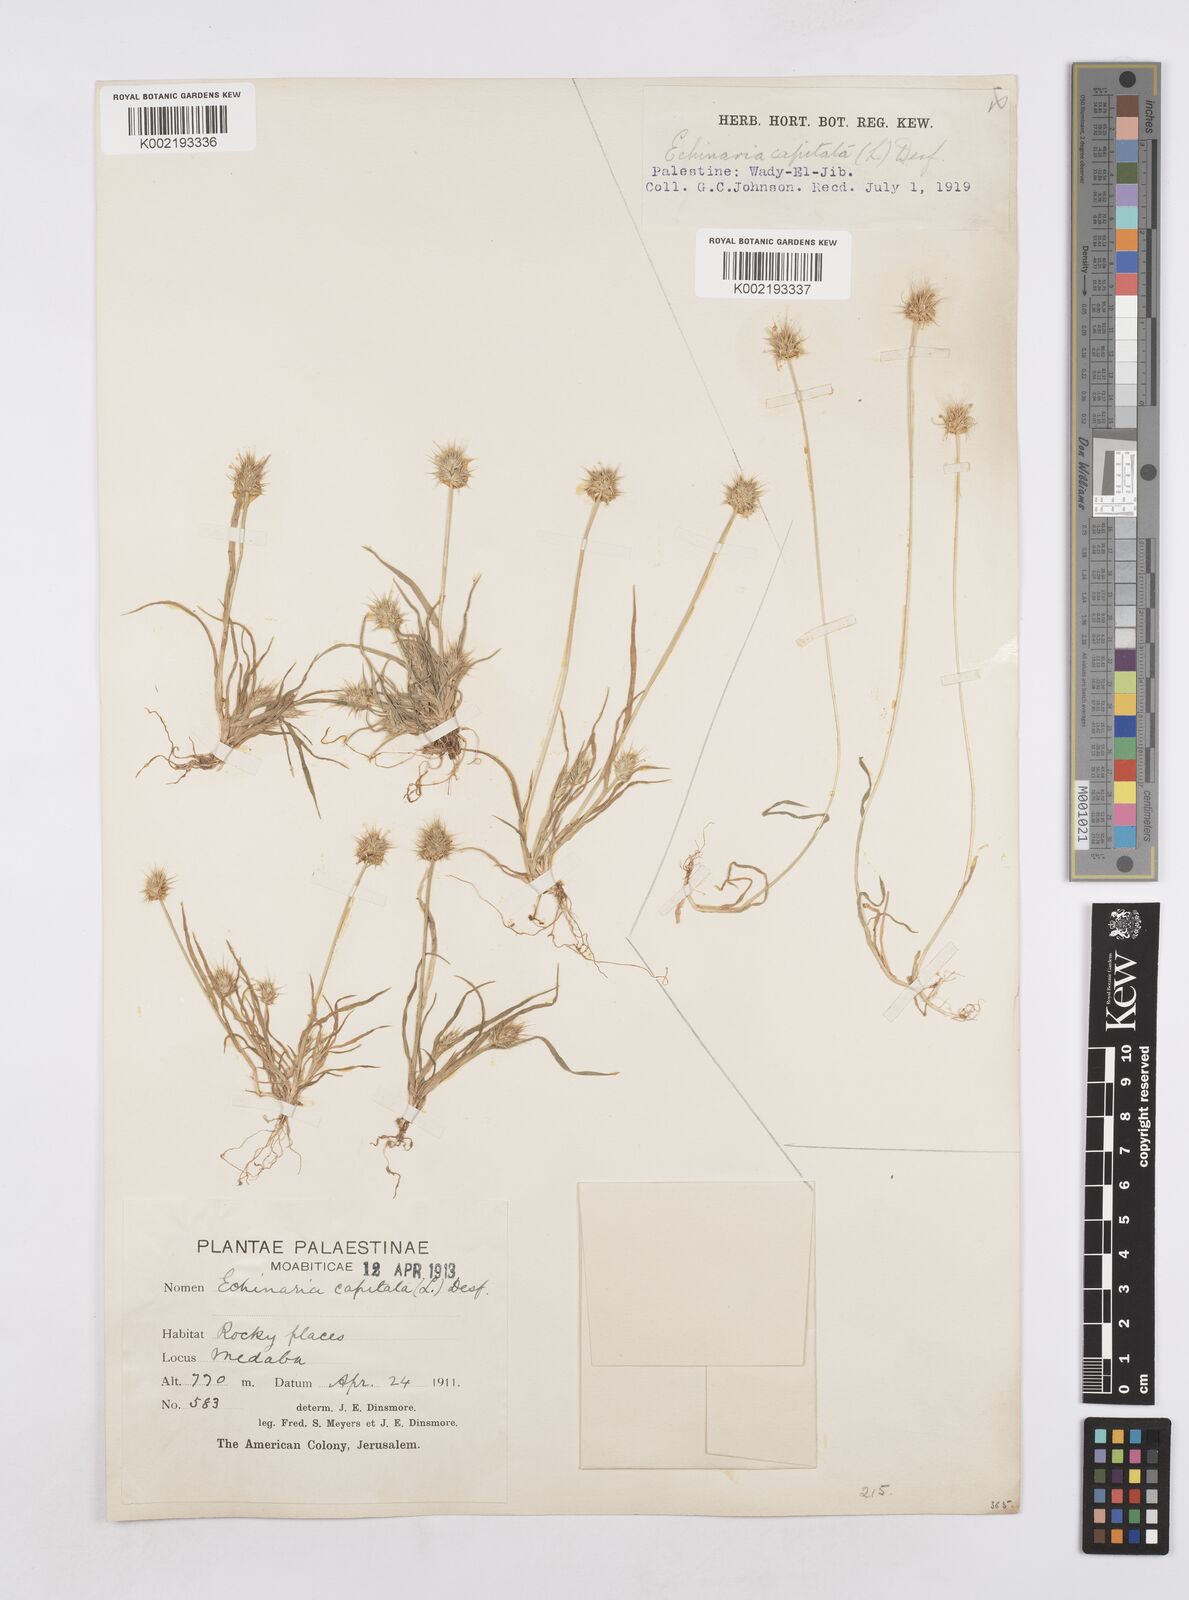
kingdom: Plantae
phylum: Tracheophyta
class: Liliopsida
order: Poales
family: Poaceae
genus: Echinaria
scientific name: Echinaria capitata
